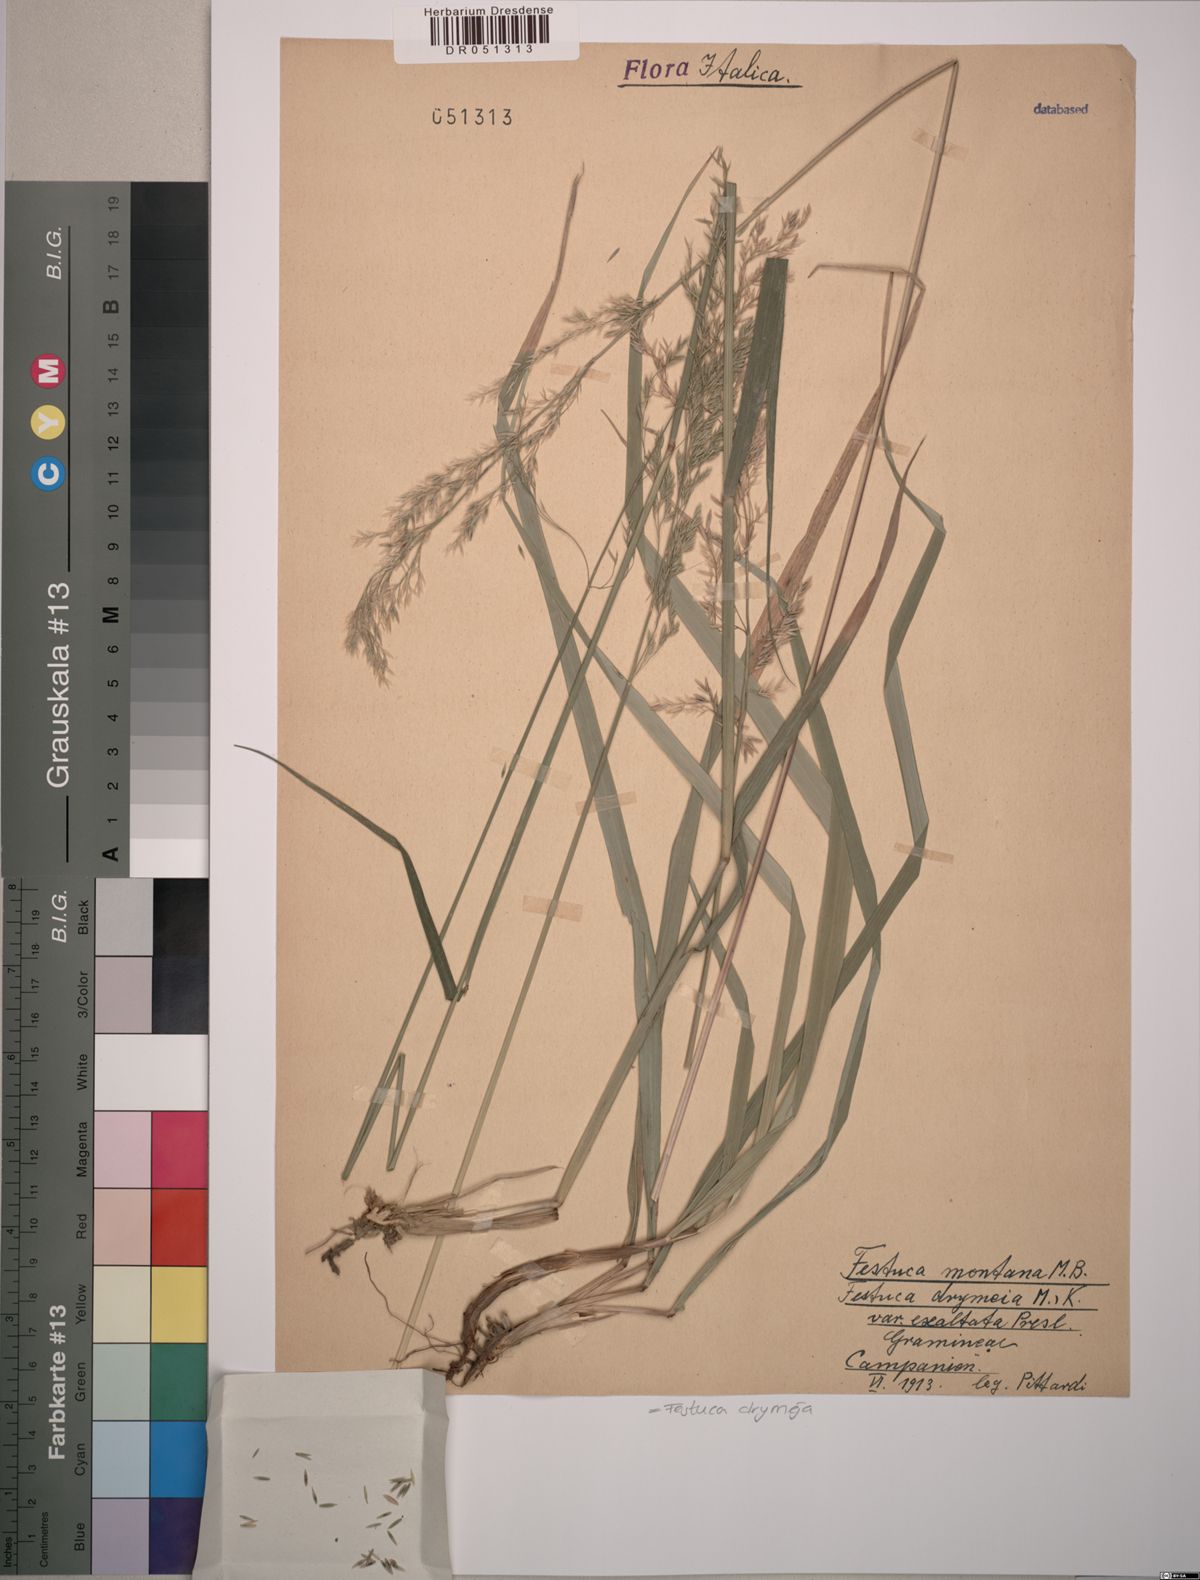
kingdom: Plantae
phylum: Tracheophyta
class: Liliopsida
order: Poales
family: Poaceae
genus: Festuca
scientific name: Festuca drymeja
